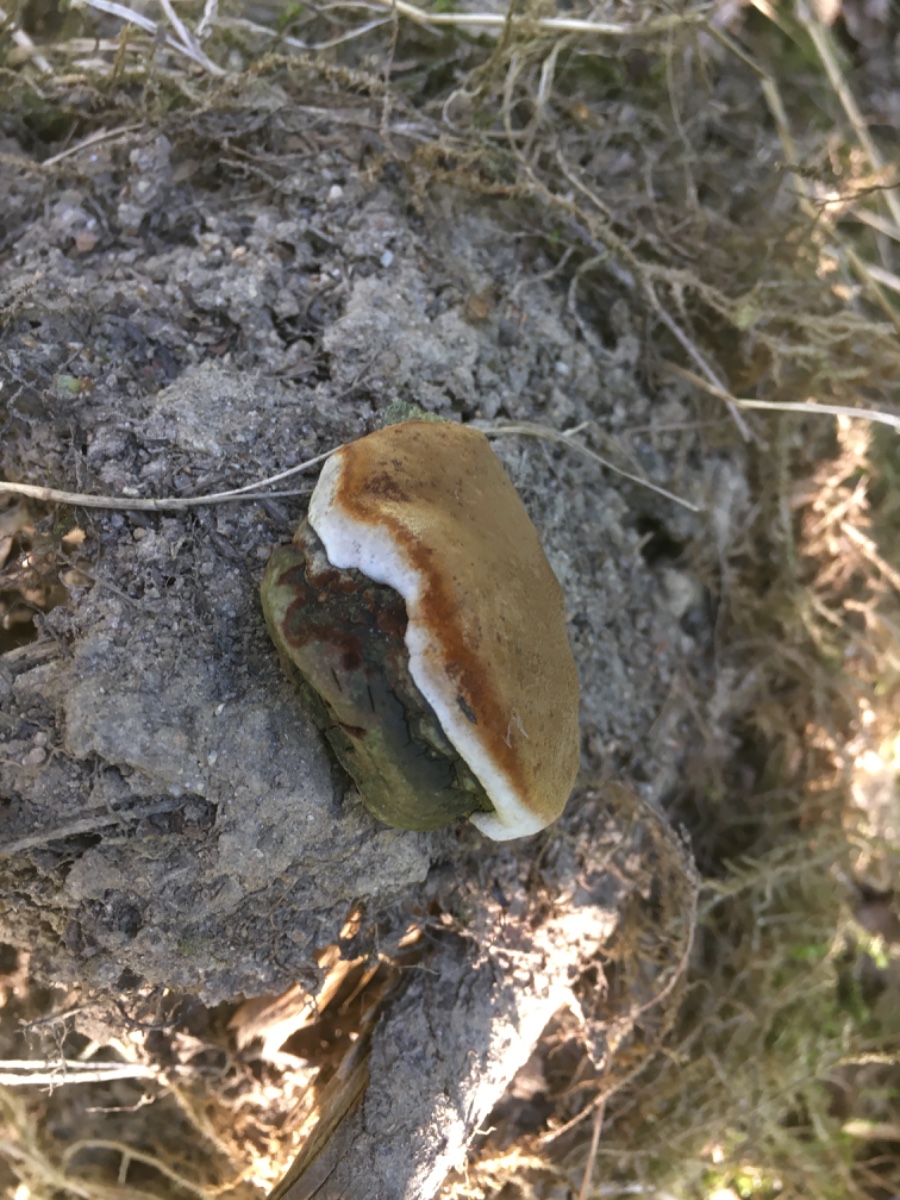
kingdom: Fungi
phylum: Basidiomycota
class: Agaricomycetes
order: Hymenochaetales
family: Hymenochaetaceae
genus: Phellinus
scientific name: Phellinus igniarius
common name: almindelig ildporesvamp
